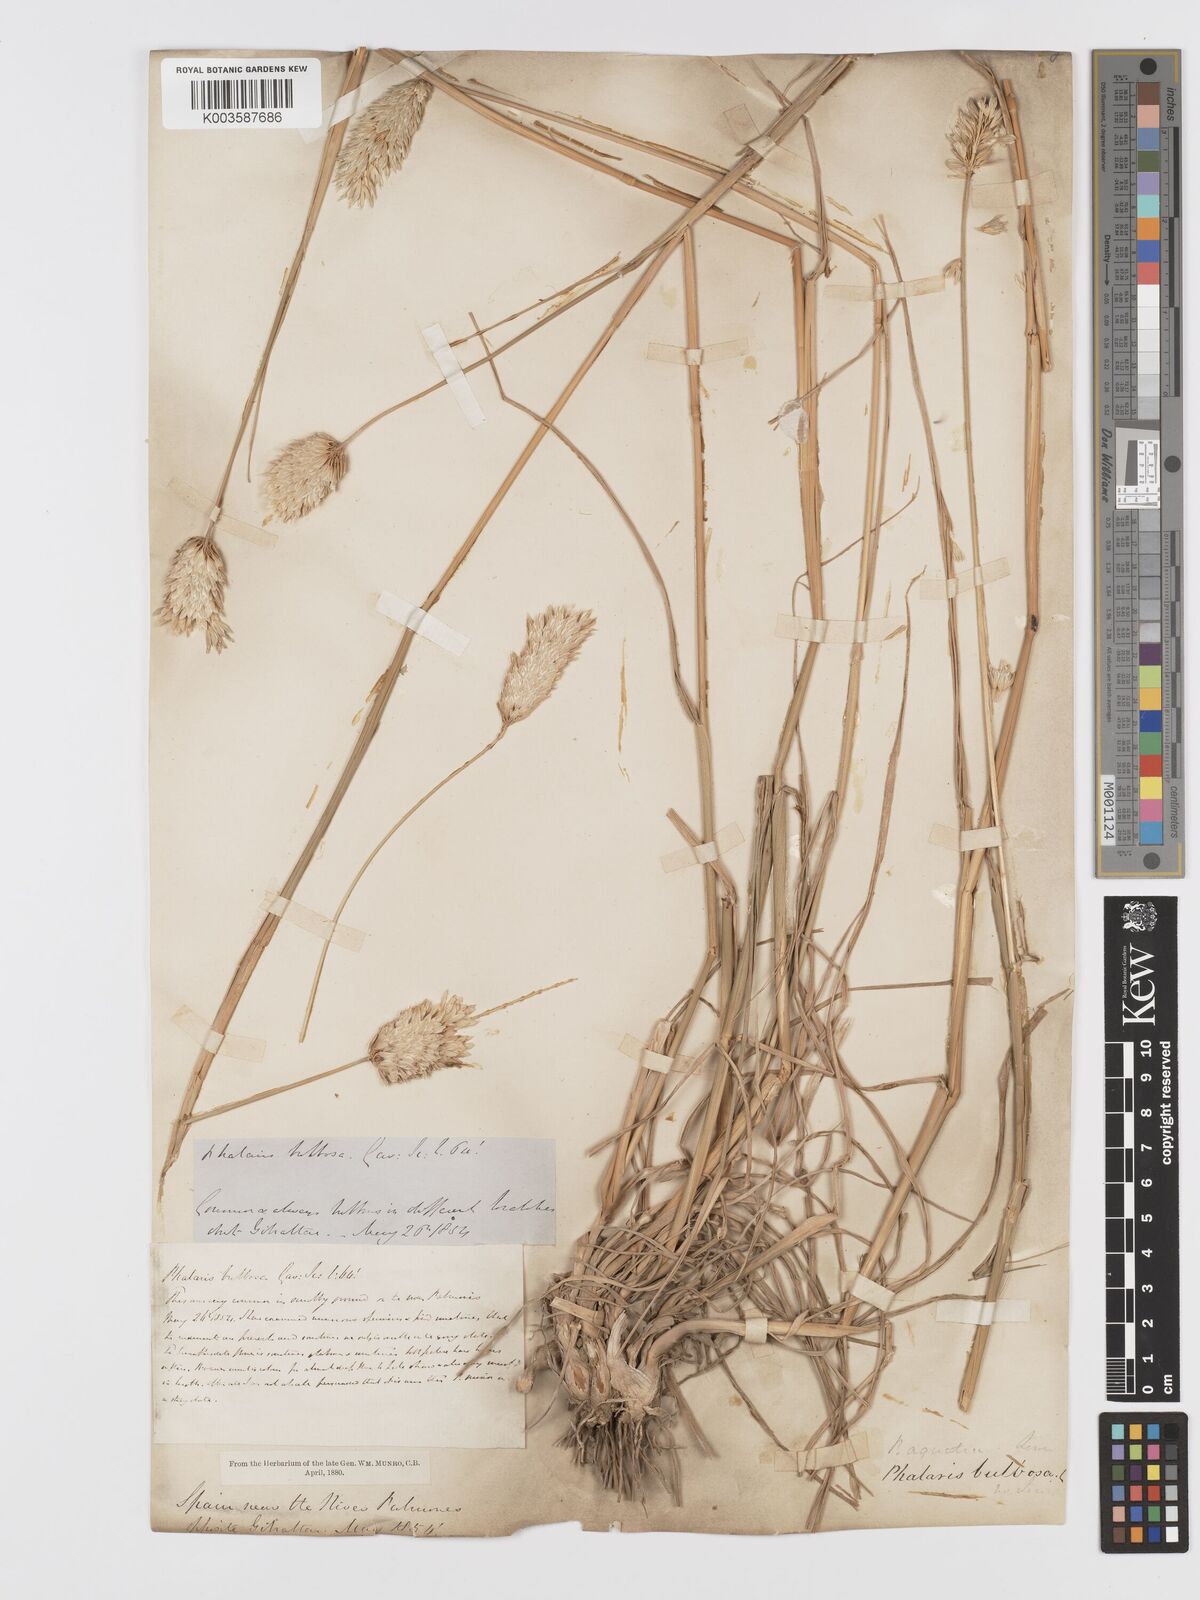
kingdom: Plantae
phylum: Tracheophyta
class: Liliopsida
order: Poales
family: Poaceae
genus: Phalaris
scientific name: Phalaris coerulescens
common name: Sunolgrass
